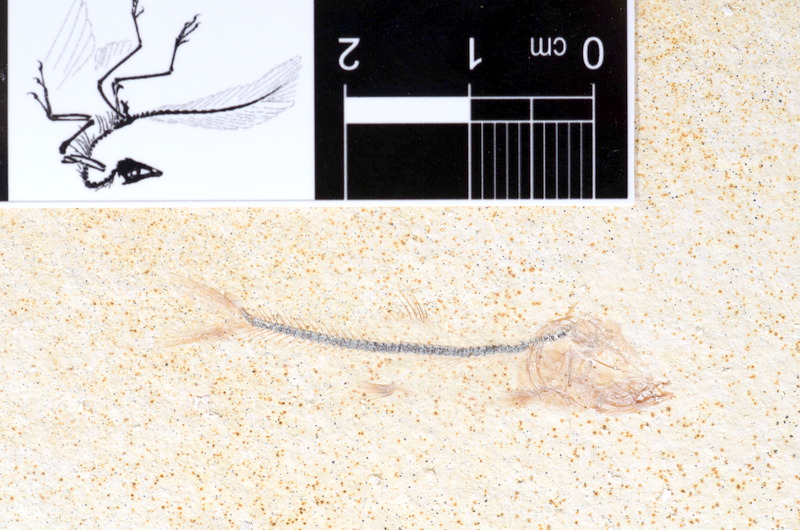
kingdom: Animalia
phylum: Chordata
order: Salmoniformes
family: Orthogonikleithridae
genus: Orthogonikleithrus
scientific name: Orthogonikleithrus hoelli
